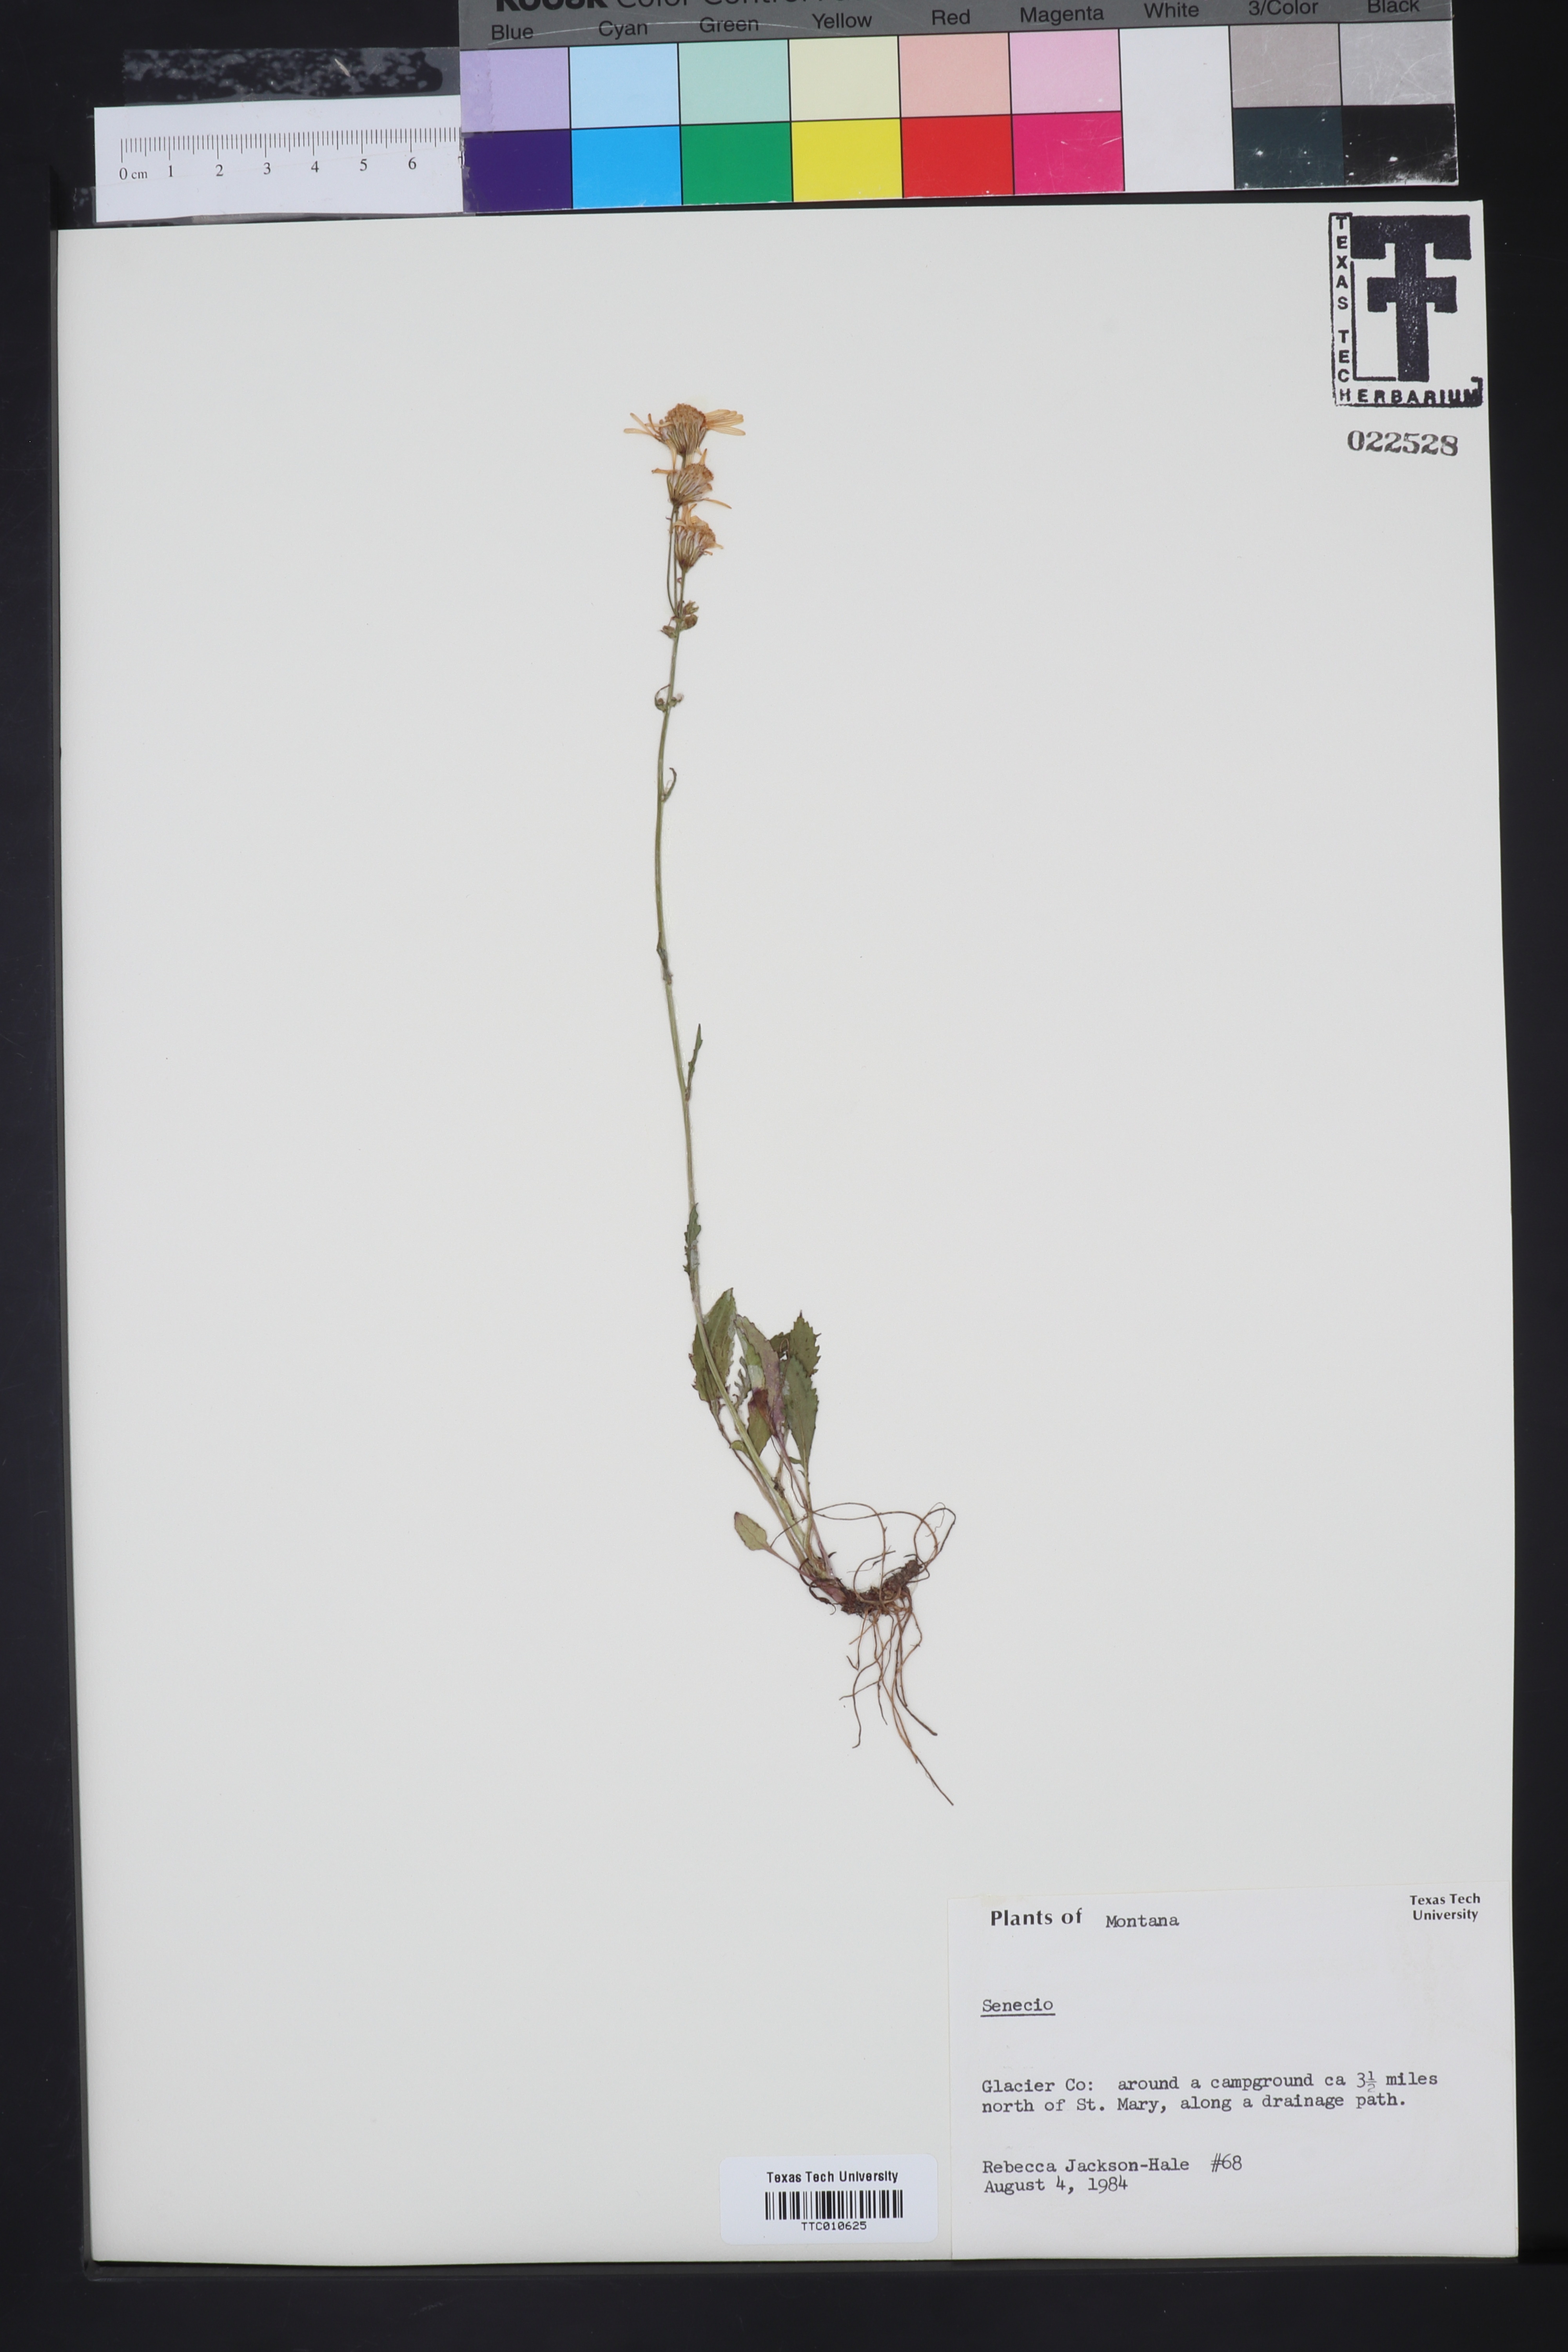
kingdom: Plantae
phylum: Tracheophyta
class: Magnoliopsida
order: Asterales
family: Asteraceae
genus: Senecio
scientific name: Senecio
